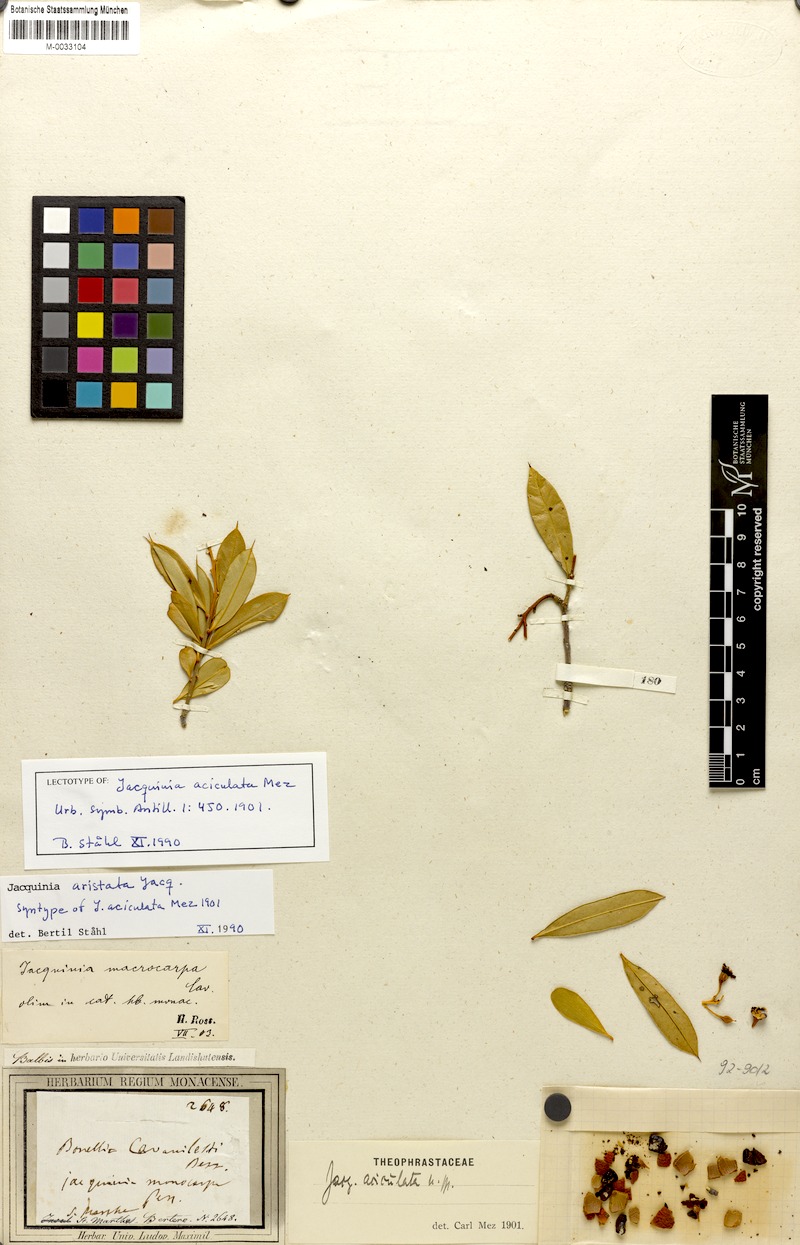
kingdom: Plantae
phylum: Tracheophyta
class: Magnoliopsida
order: Ericales
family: Primulaceae
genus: Bonellia
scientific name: Bonellia frutescens
